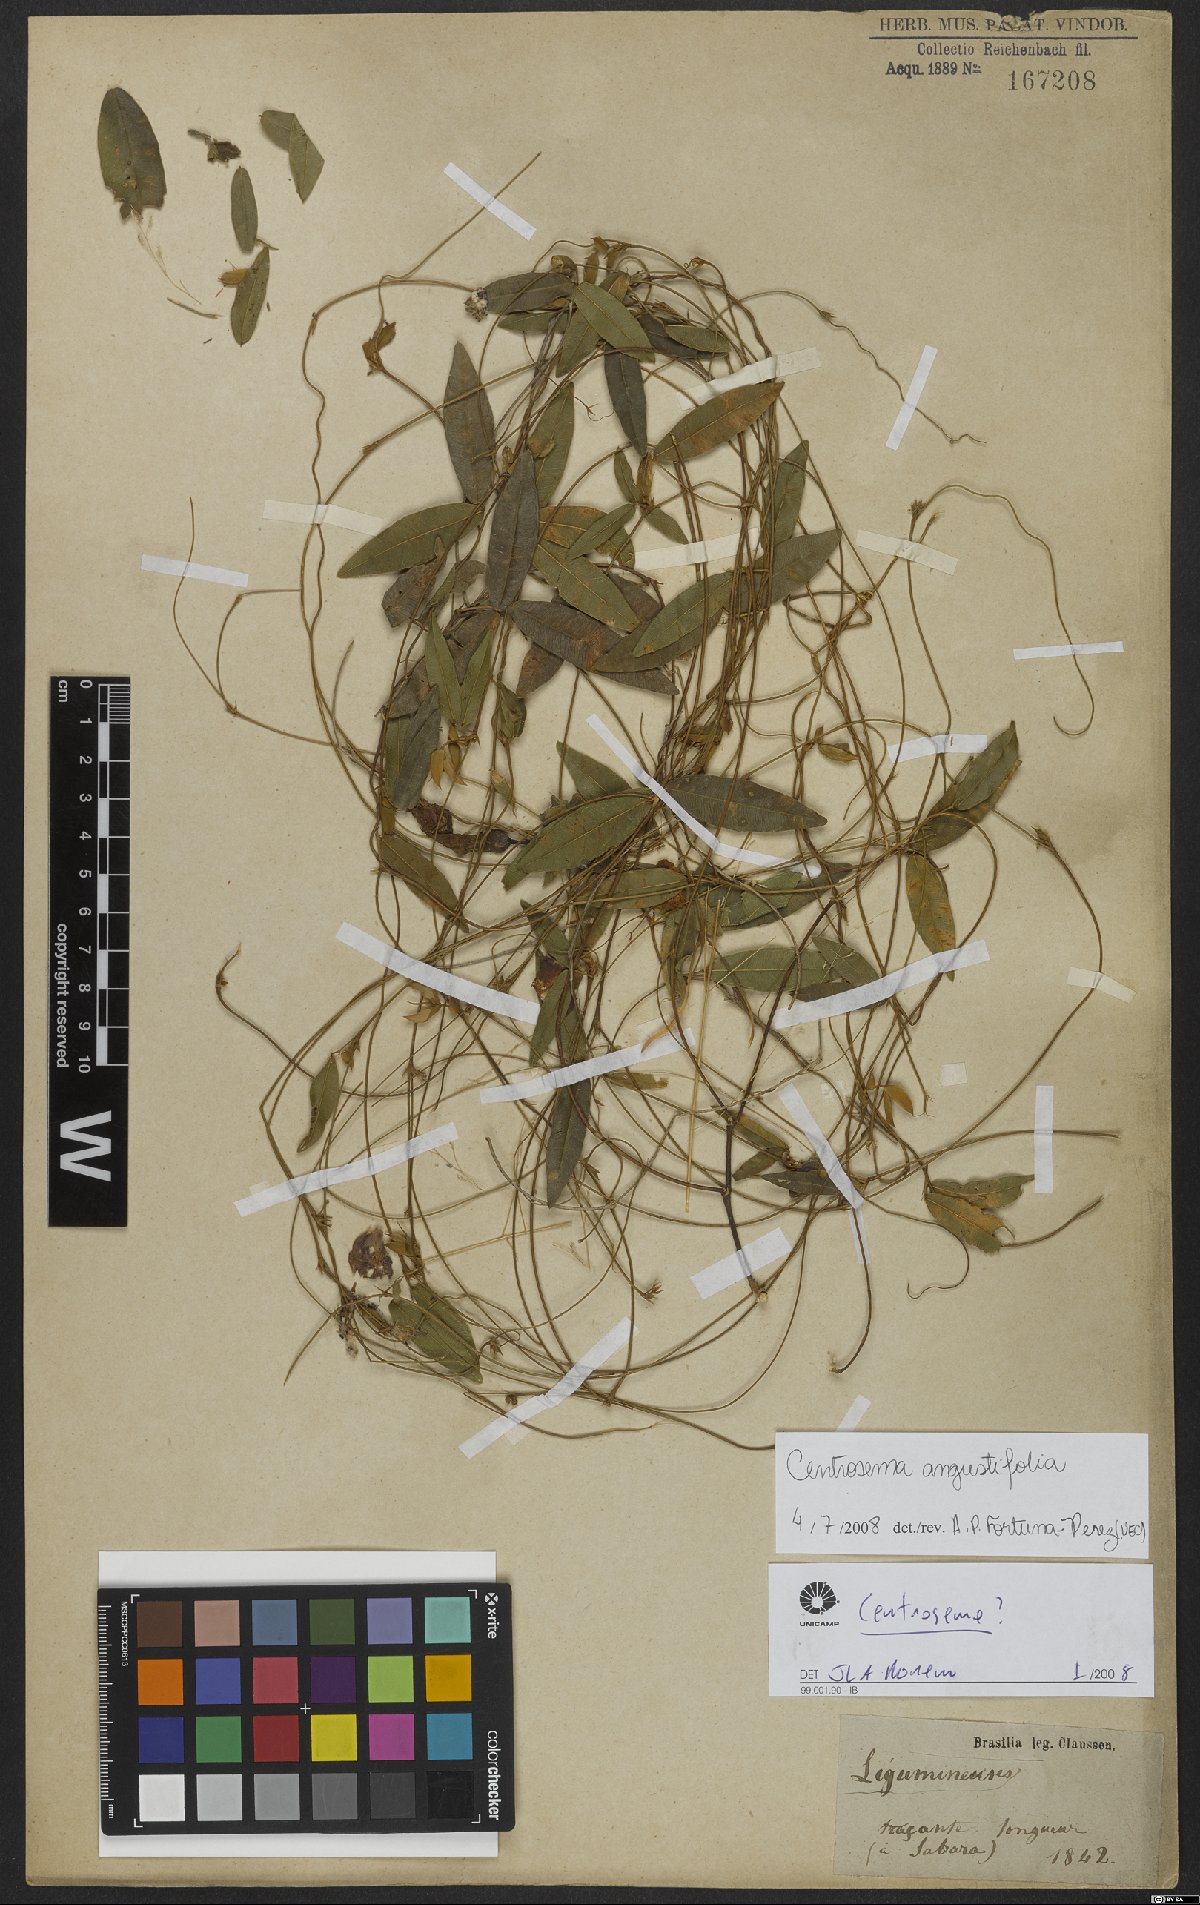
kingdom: Plantae
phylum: Tracheophyta
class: Magnoliopsida
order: Fabales
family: Fabaceae
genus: Centrosema
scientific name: Centrosema angustifolium
